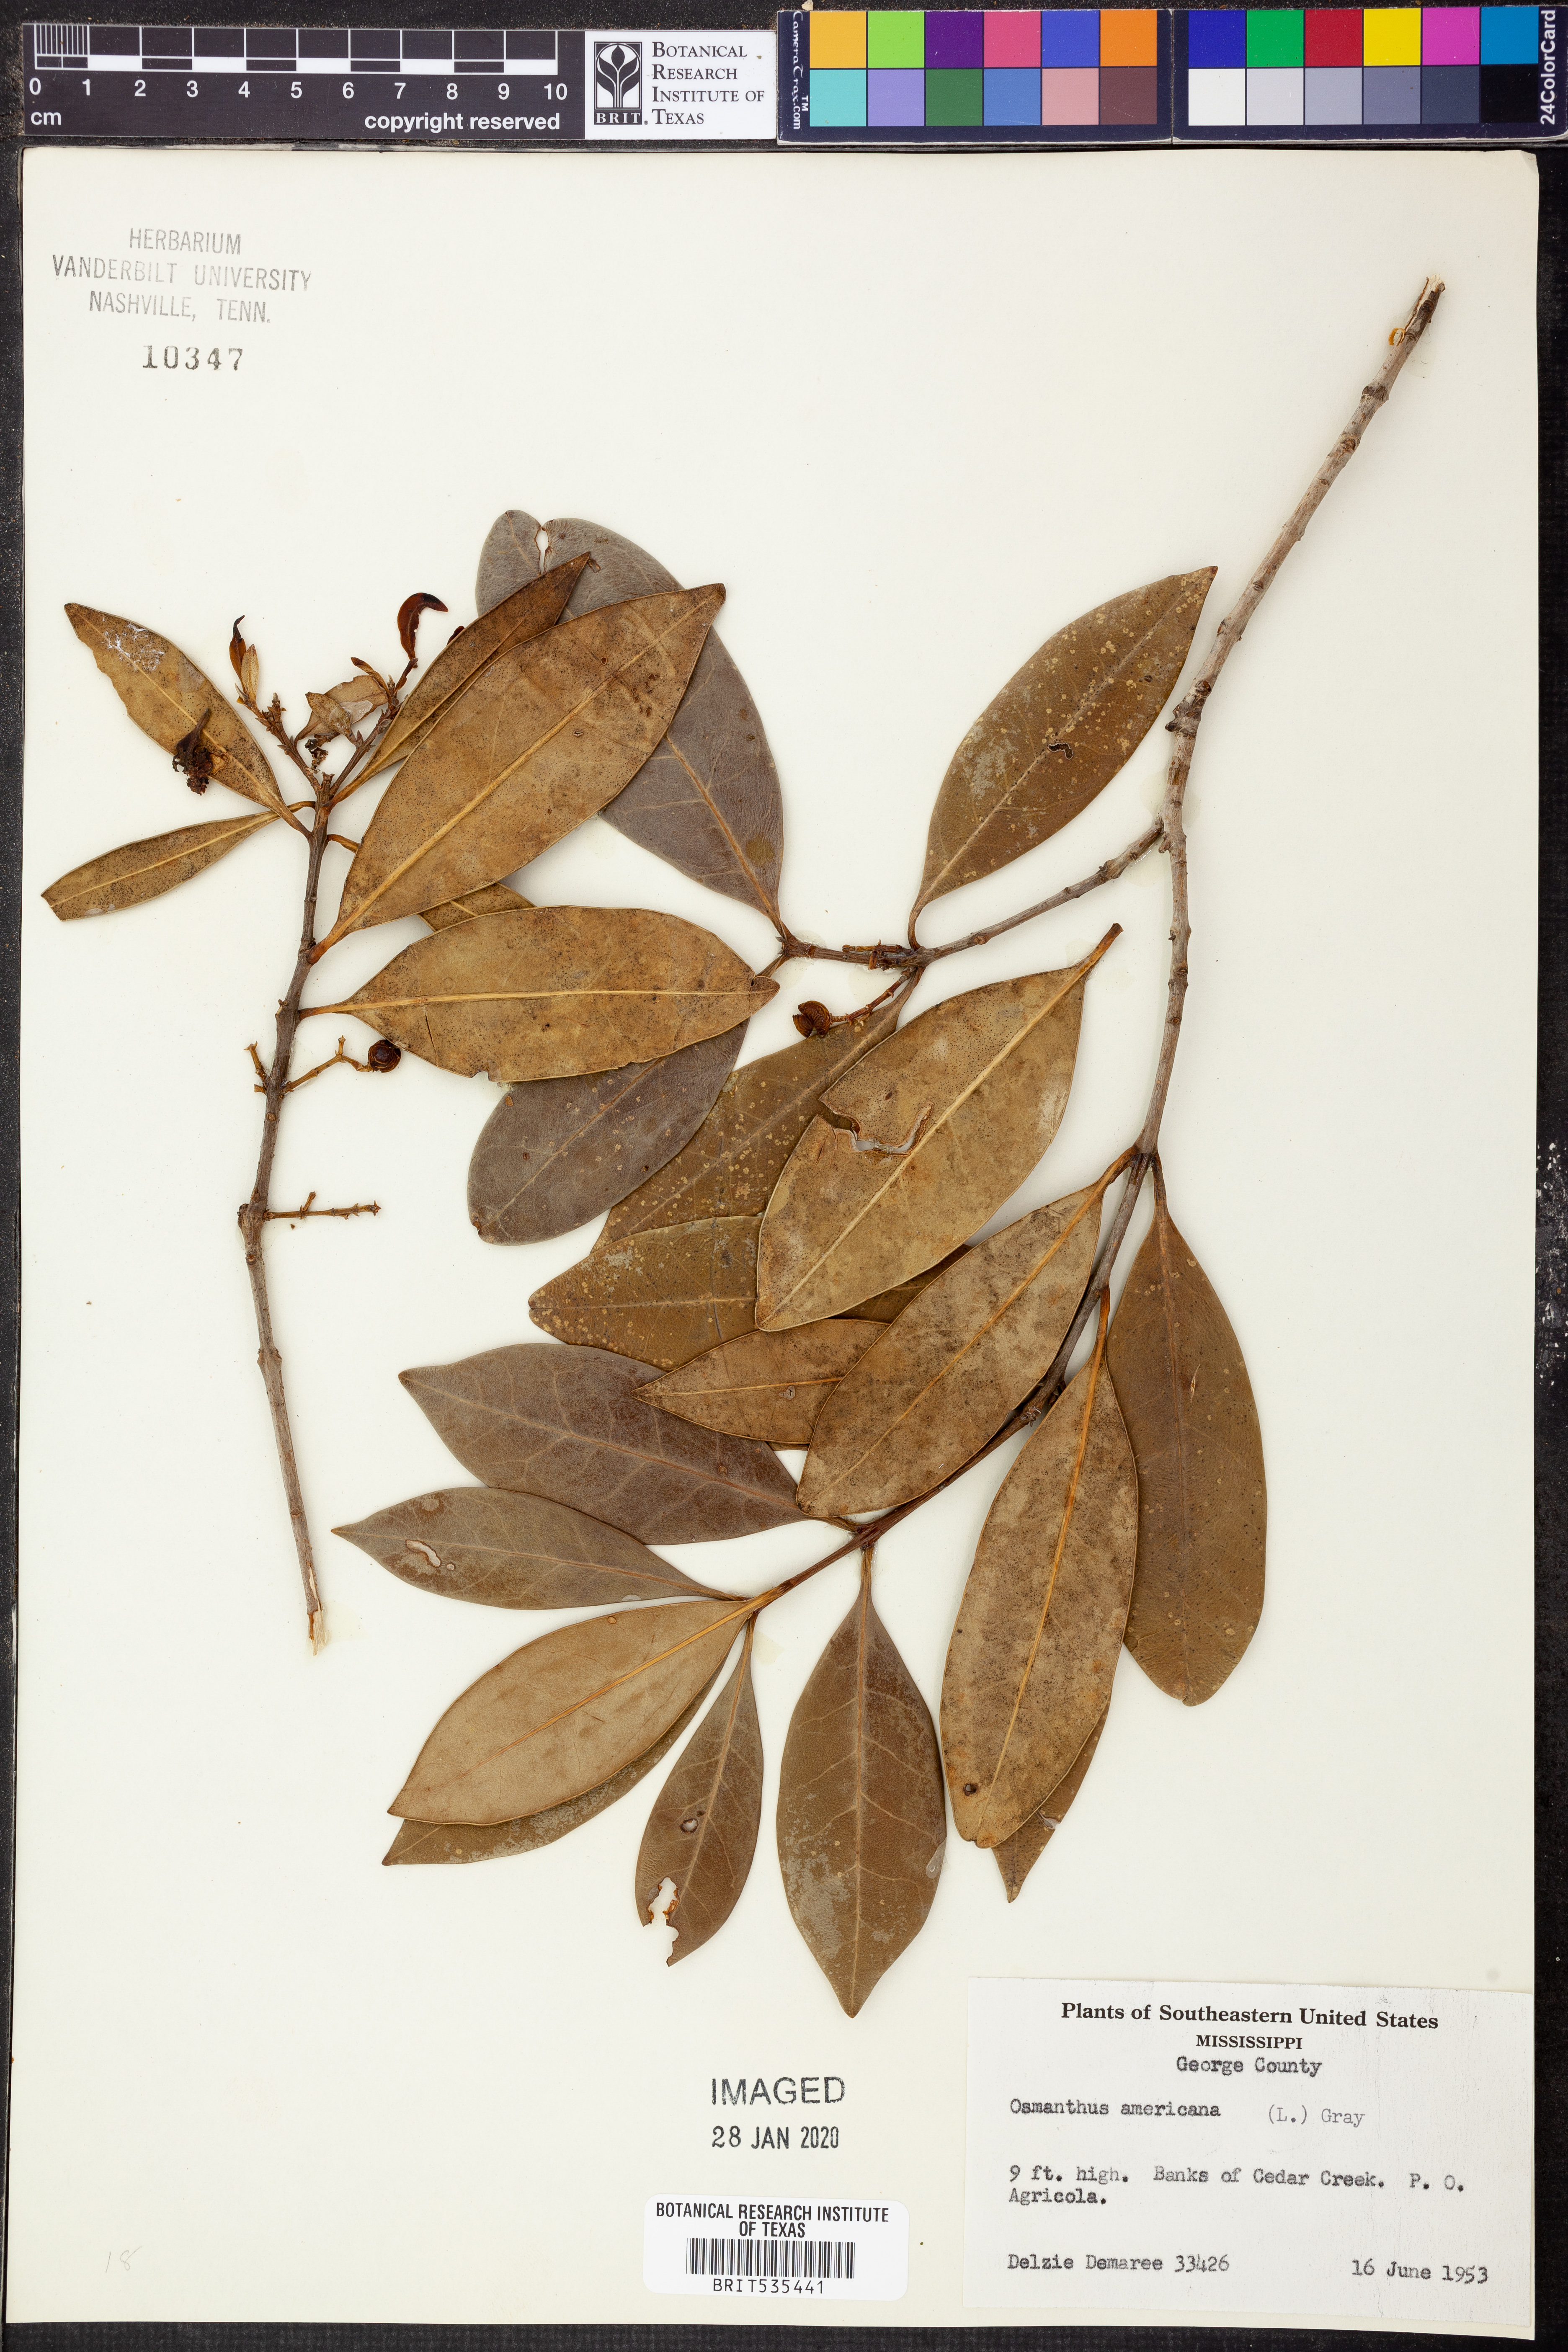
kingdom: Plantae
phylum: Tracheophyta
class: Magnoliopsida
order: Lamiales
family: Oleaceae
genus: Osmanthus
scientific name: Osmanthus americanus
